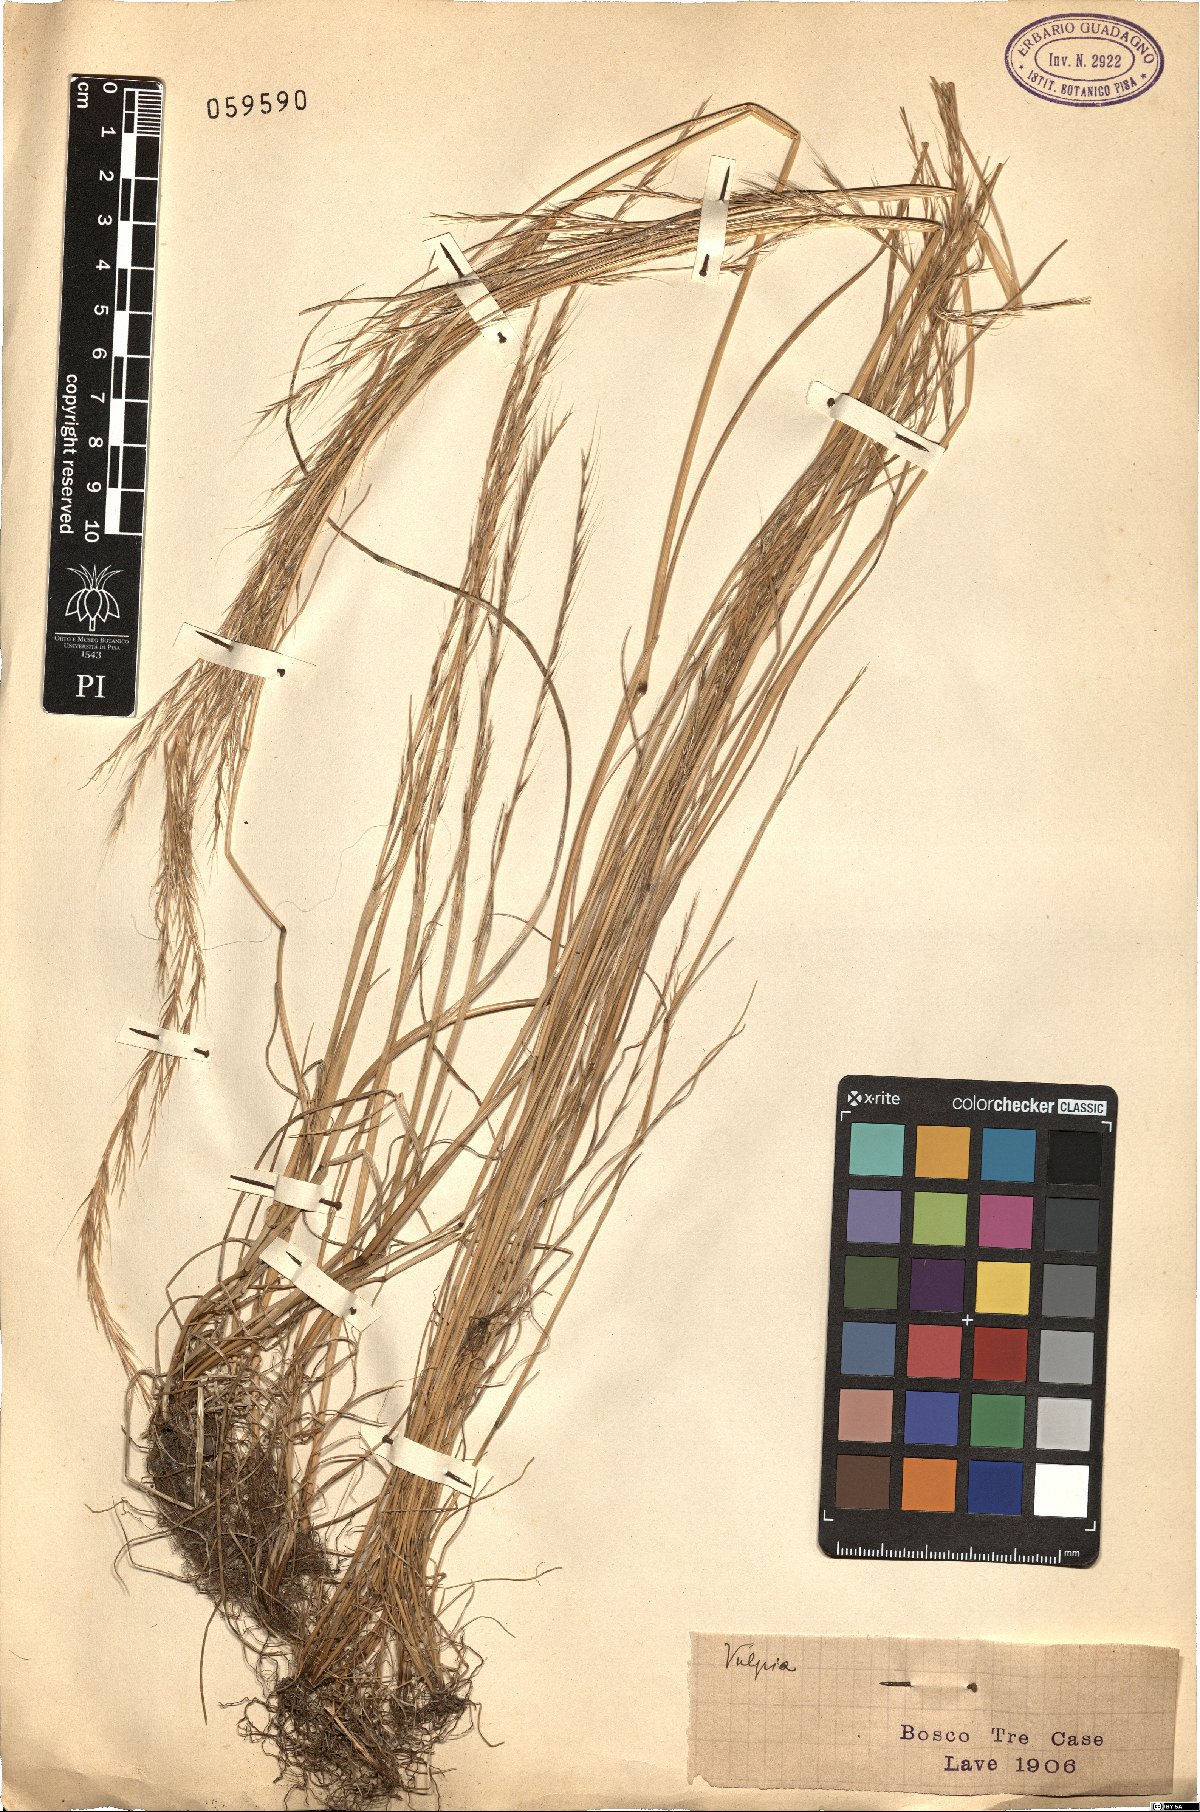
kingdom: Plantae
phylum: Tracheophyta
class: Liliopsida
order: Poales
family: Poaceae
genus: Festuca
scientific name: Festuca
